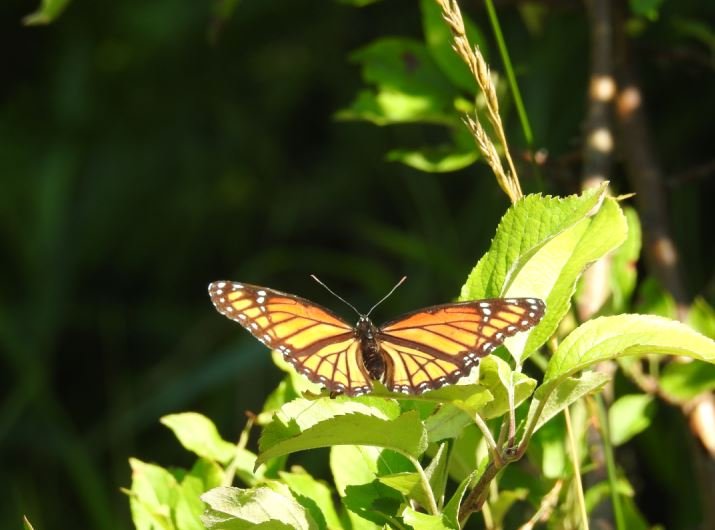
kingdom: Animalia
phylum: Arthropoda
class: Insecta
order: Lepidoptera
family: Nymphalidae
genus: Limenitis
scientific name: Limenitis archippus
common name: Viceroy
